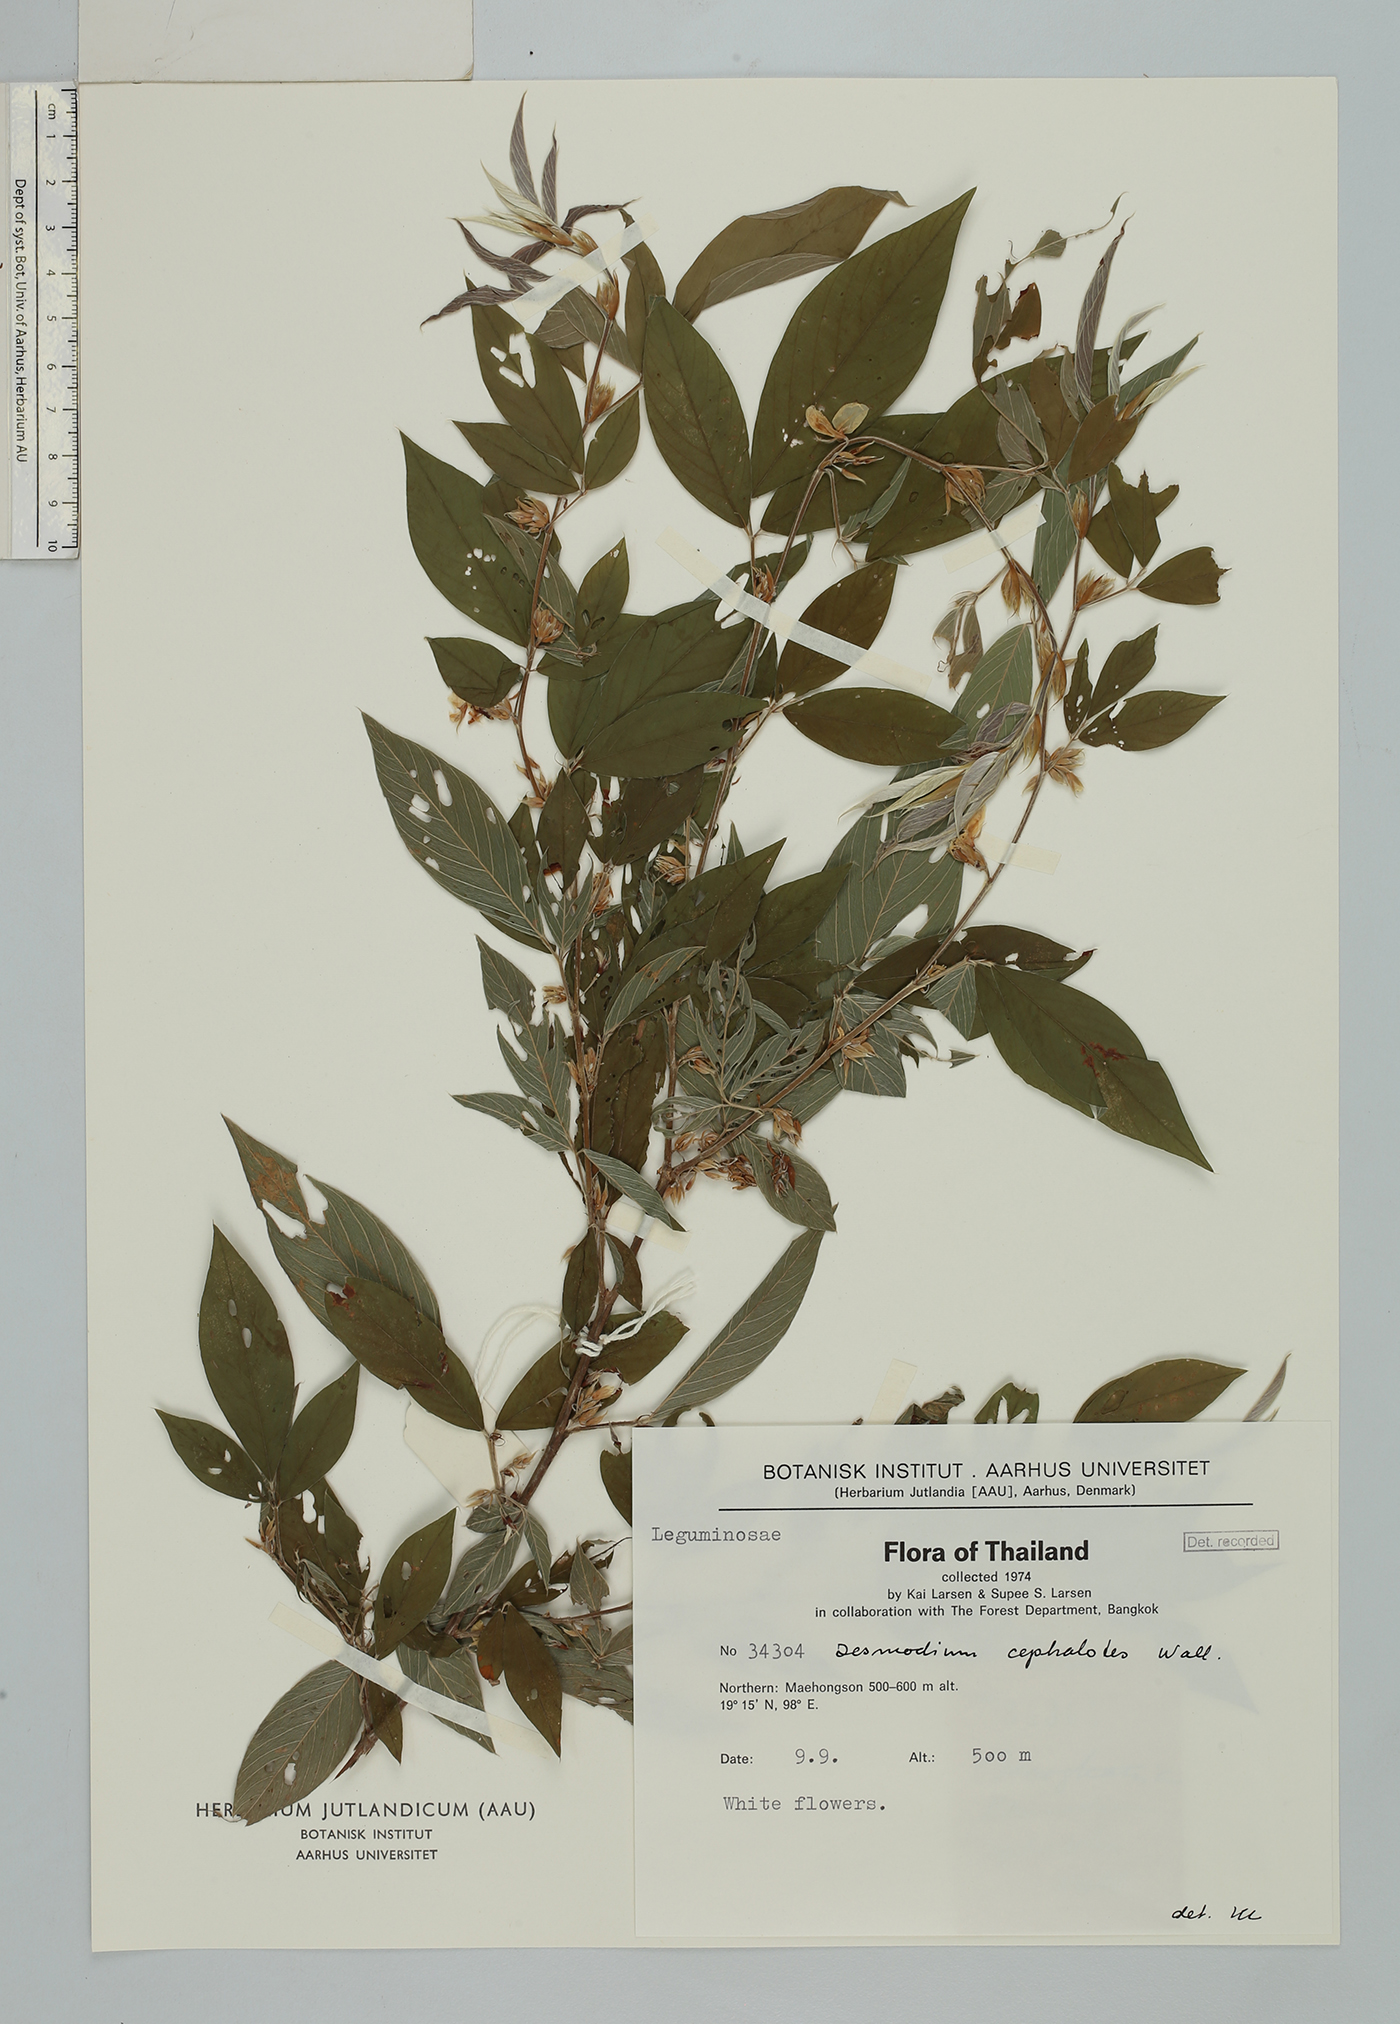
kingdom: Plantae
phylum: Tracheophyta
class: Magnoliopsida
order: Fabales
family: Fabaceae
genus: Dendrolobium
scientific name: Dendrolobium triangulare
